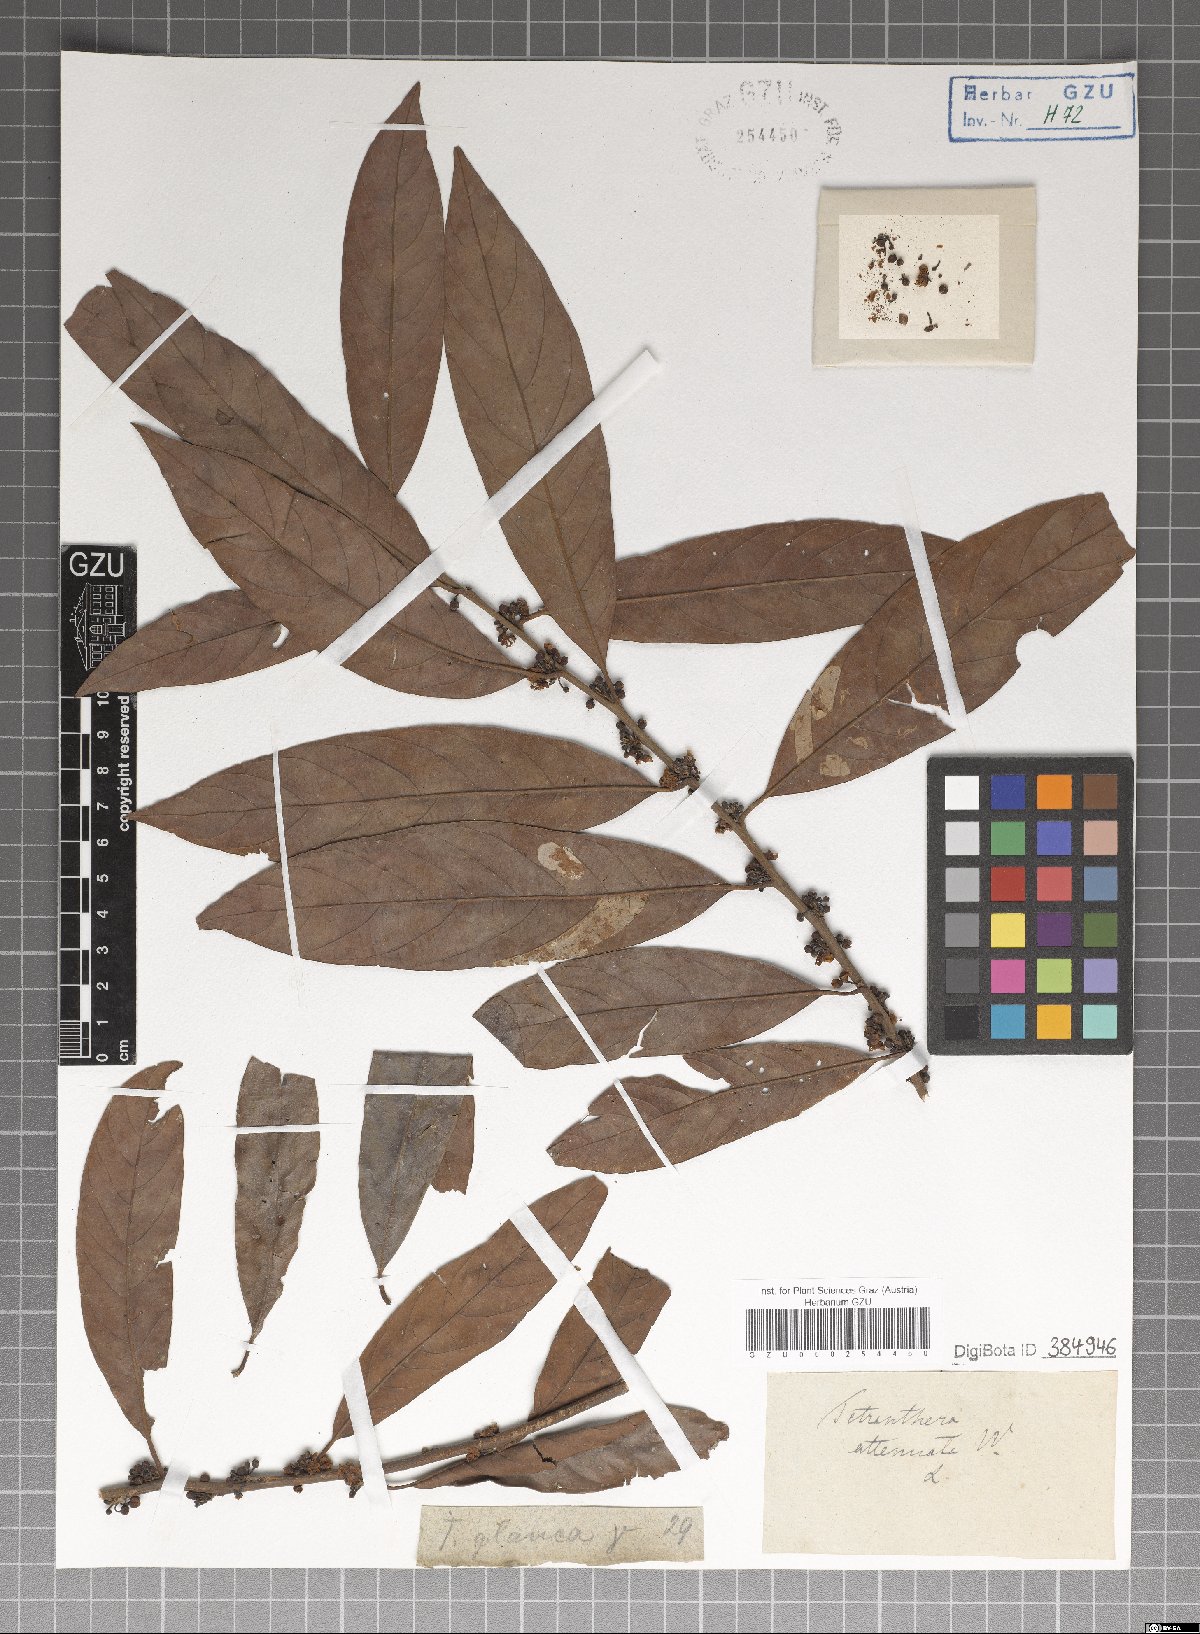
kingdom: Plantae
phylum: Tracheophyta
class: Magnoliopsida
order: Laurales
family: Lauraceae
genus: Litsea
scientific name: Litsea salicifolia
